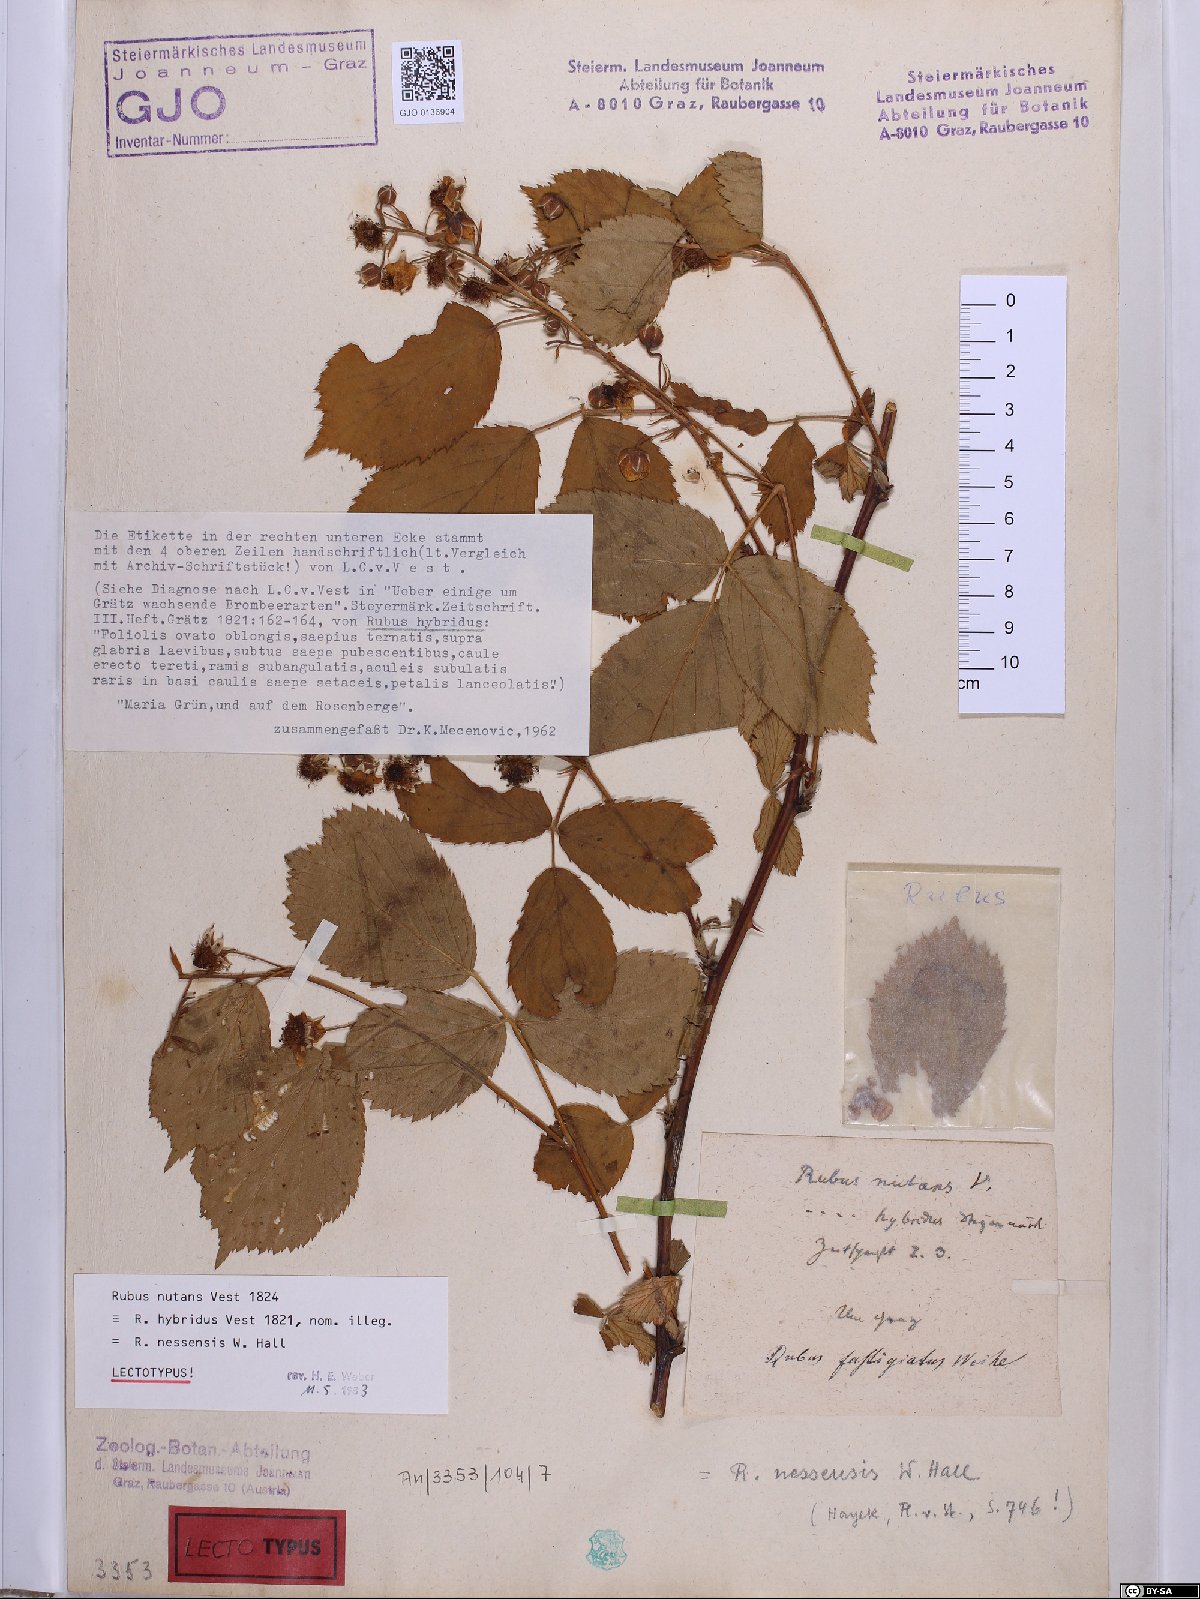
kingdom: Plantae
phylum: Tracheophyta
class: Magnoliopsida
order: Rosales
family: Rosaceae
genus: Rubus
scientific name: Rubus polonicus
